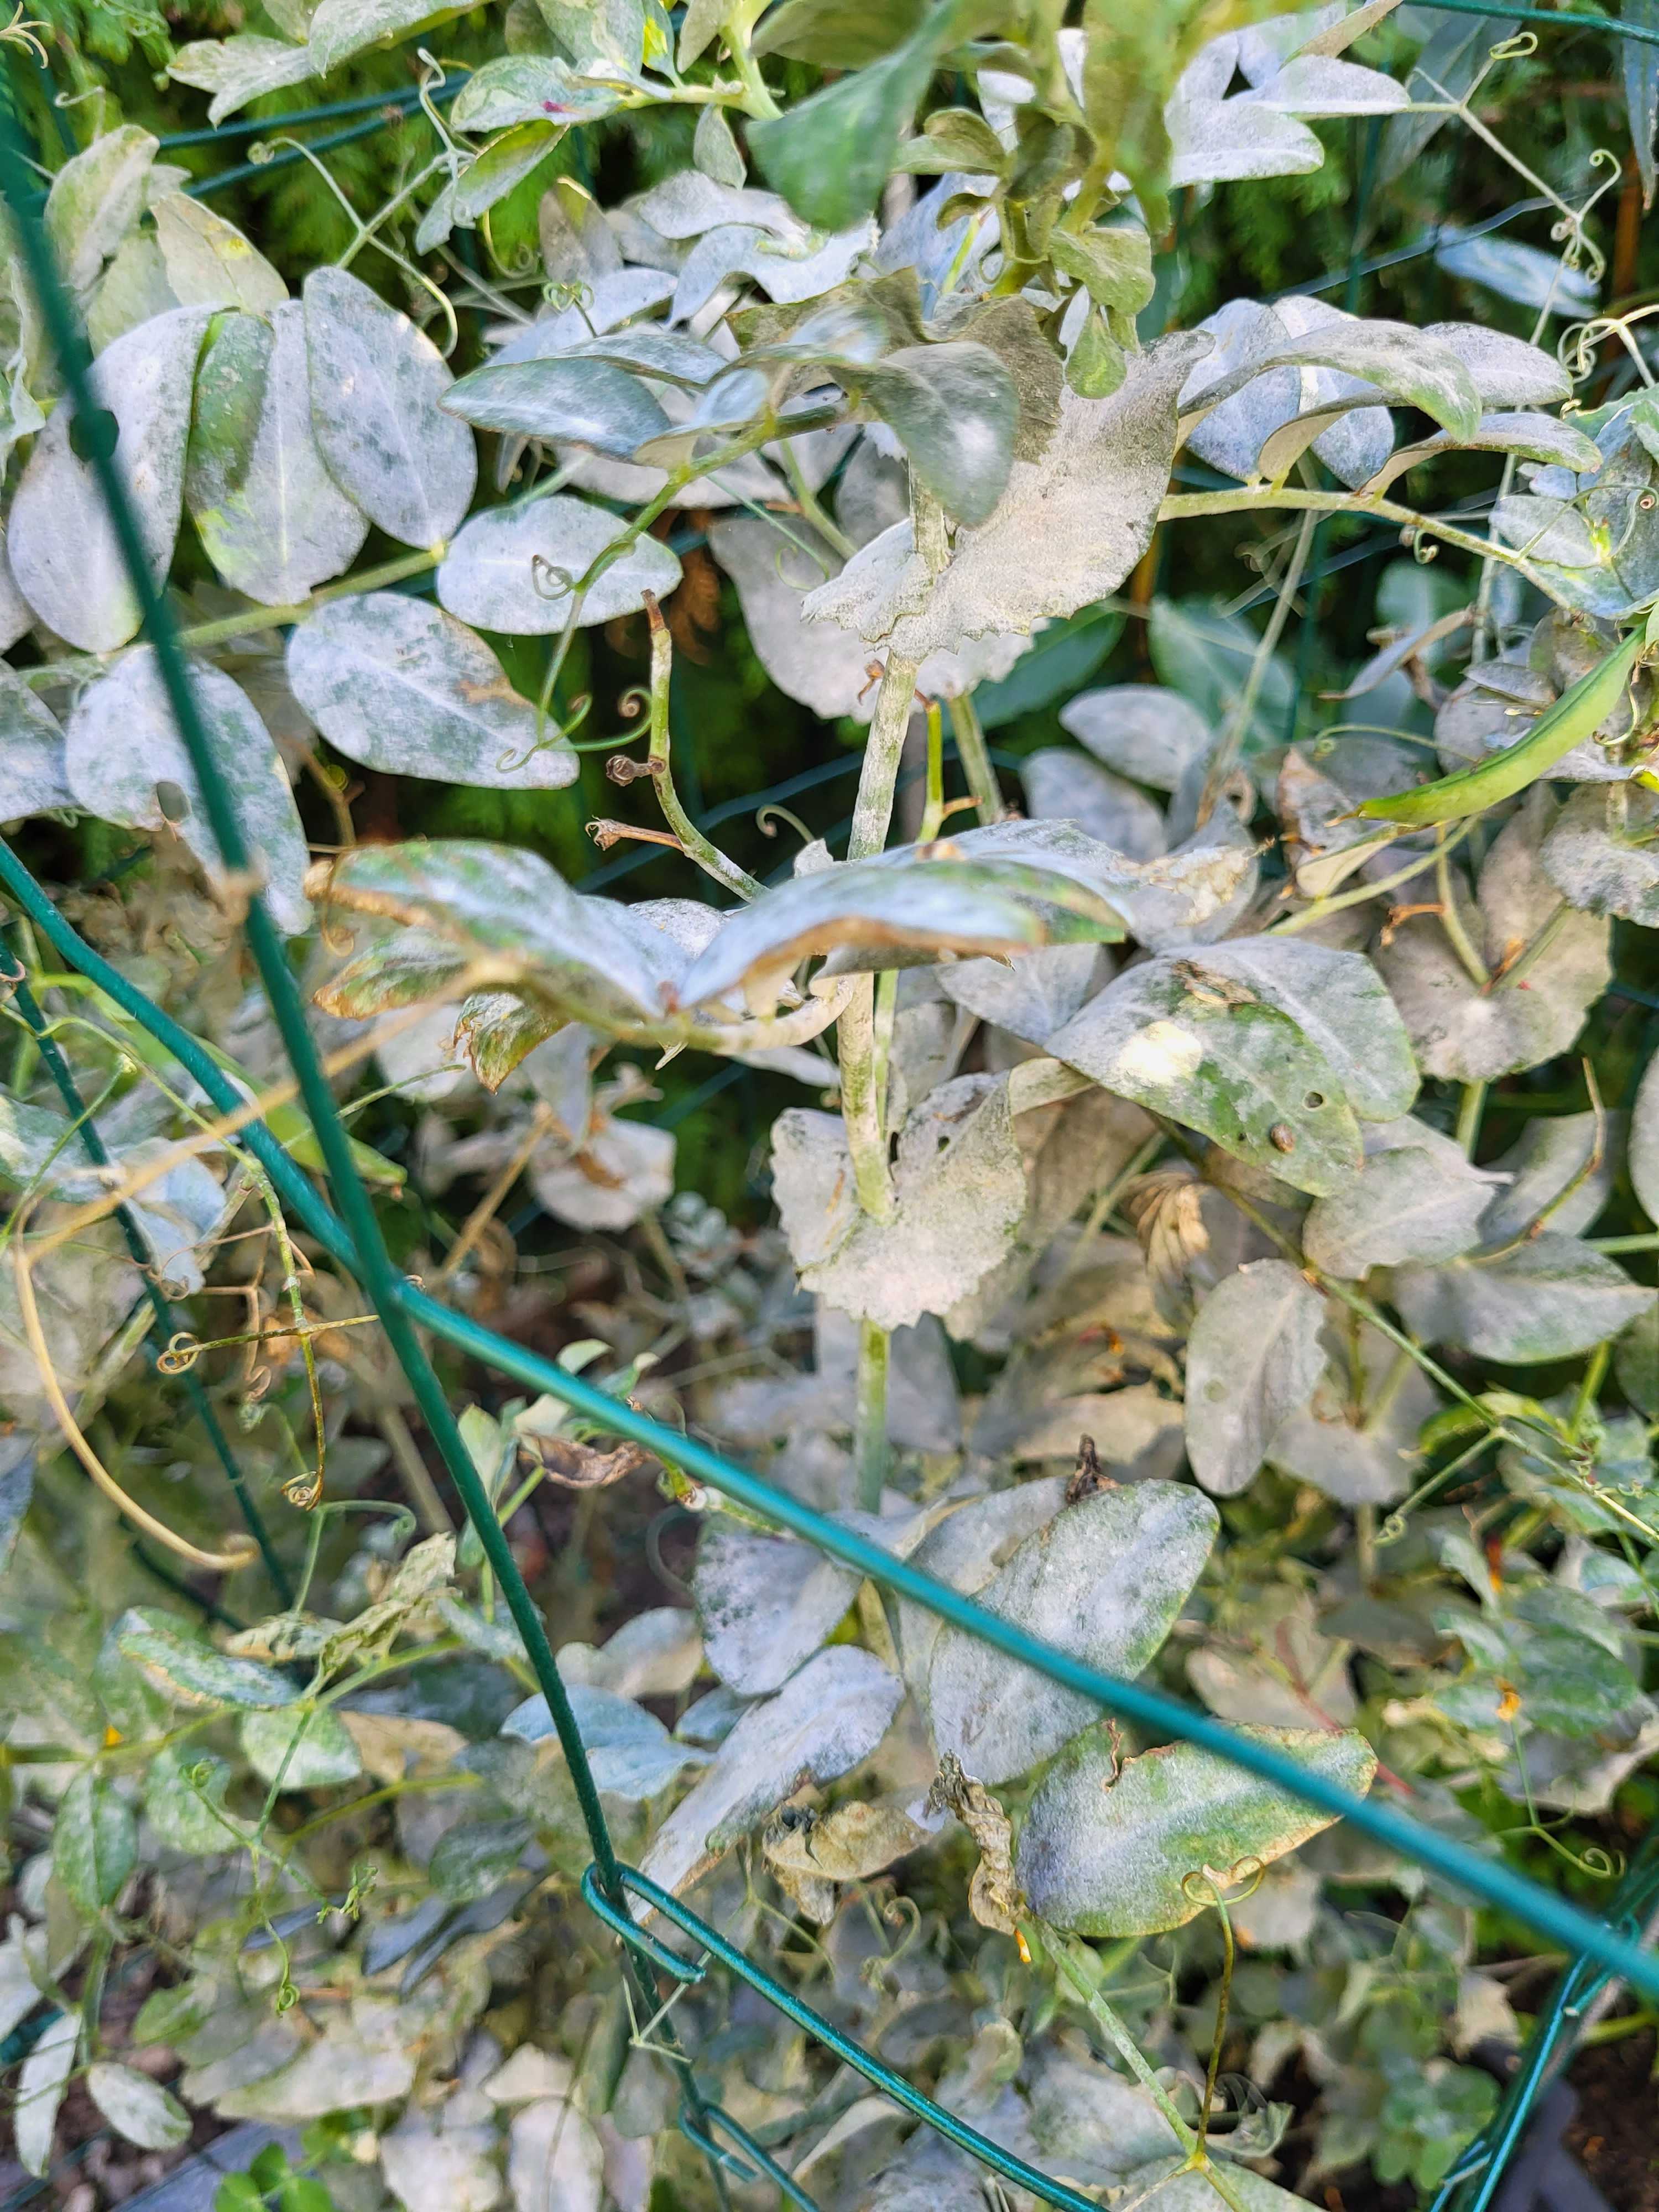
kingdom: Fungi
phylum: Ascomycota
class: Leotiomycetes
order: Helotiales
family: Erysiphaceae
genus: Erysiphe
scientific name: Erysiphe pisi
